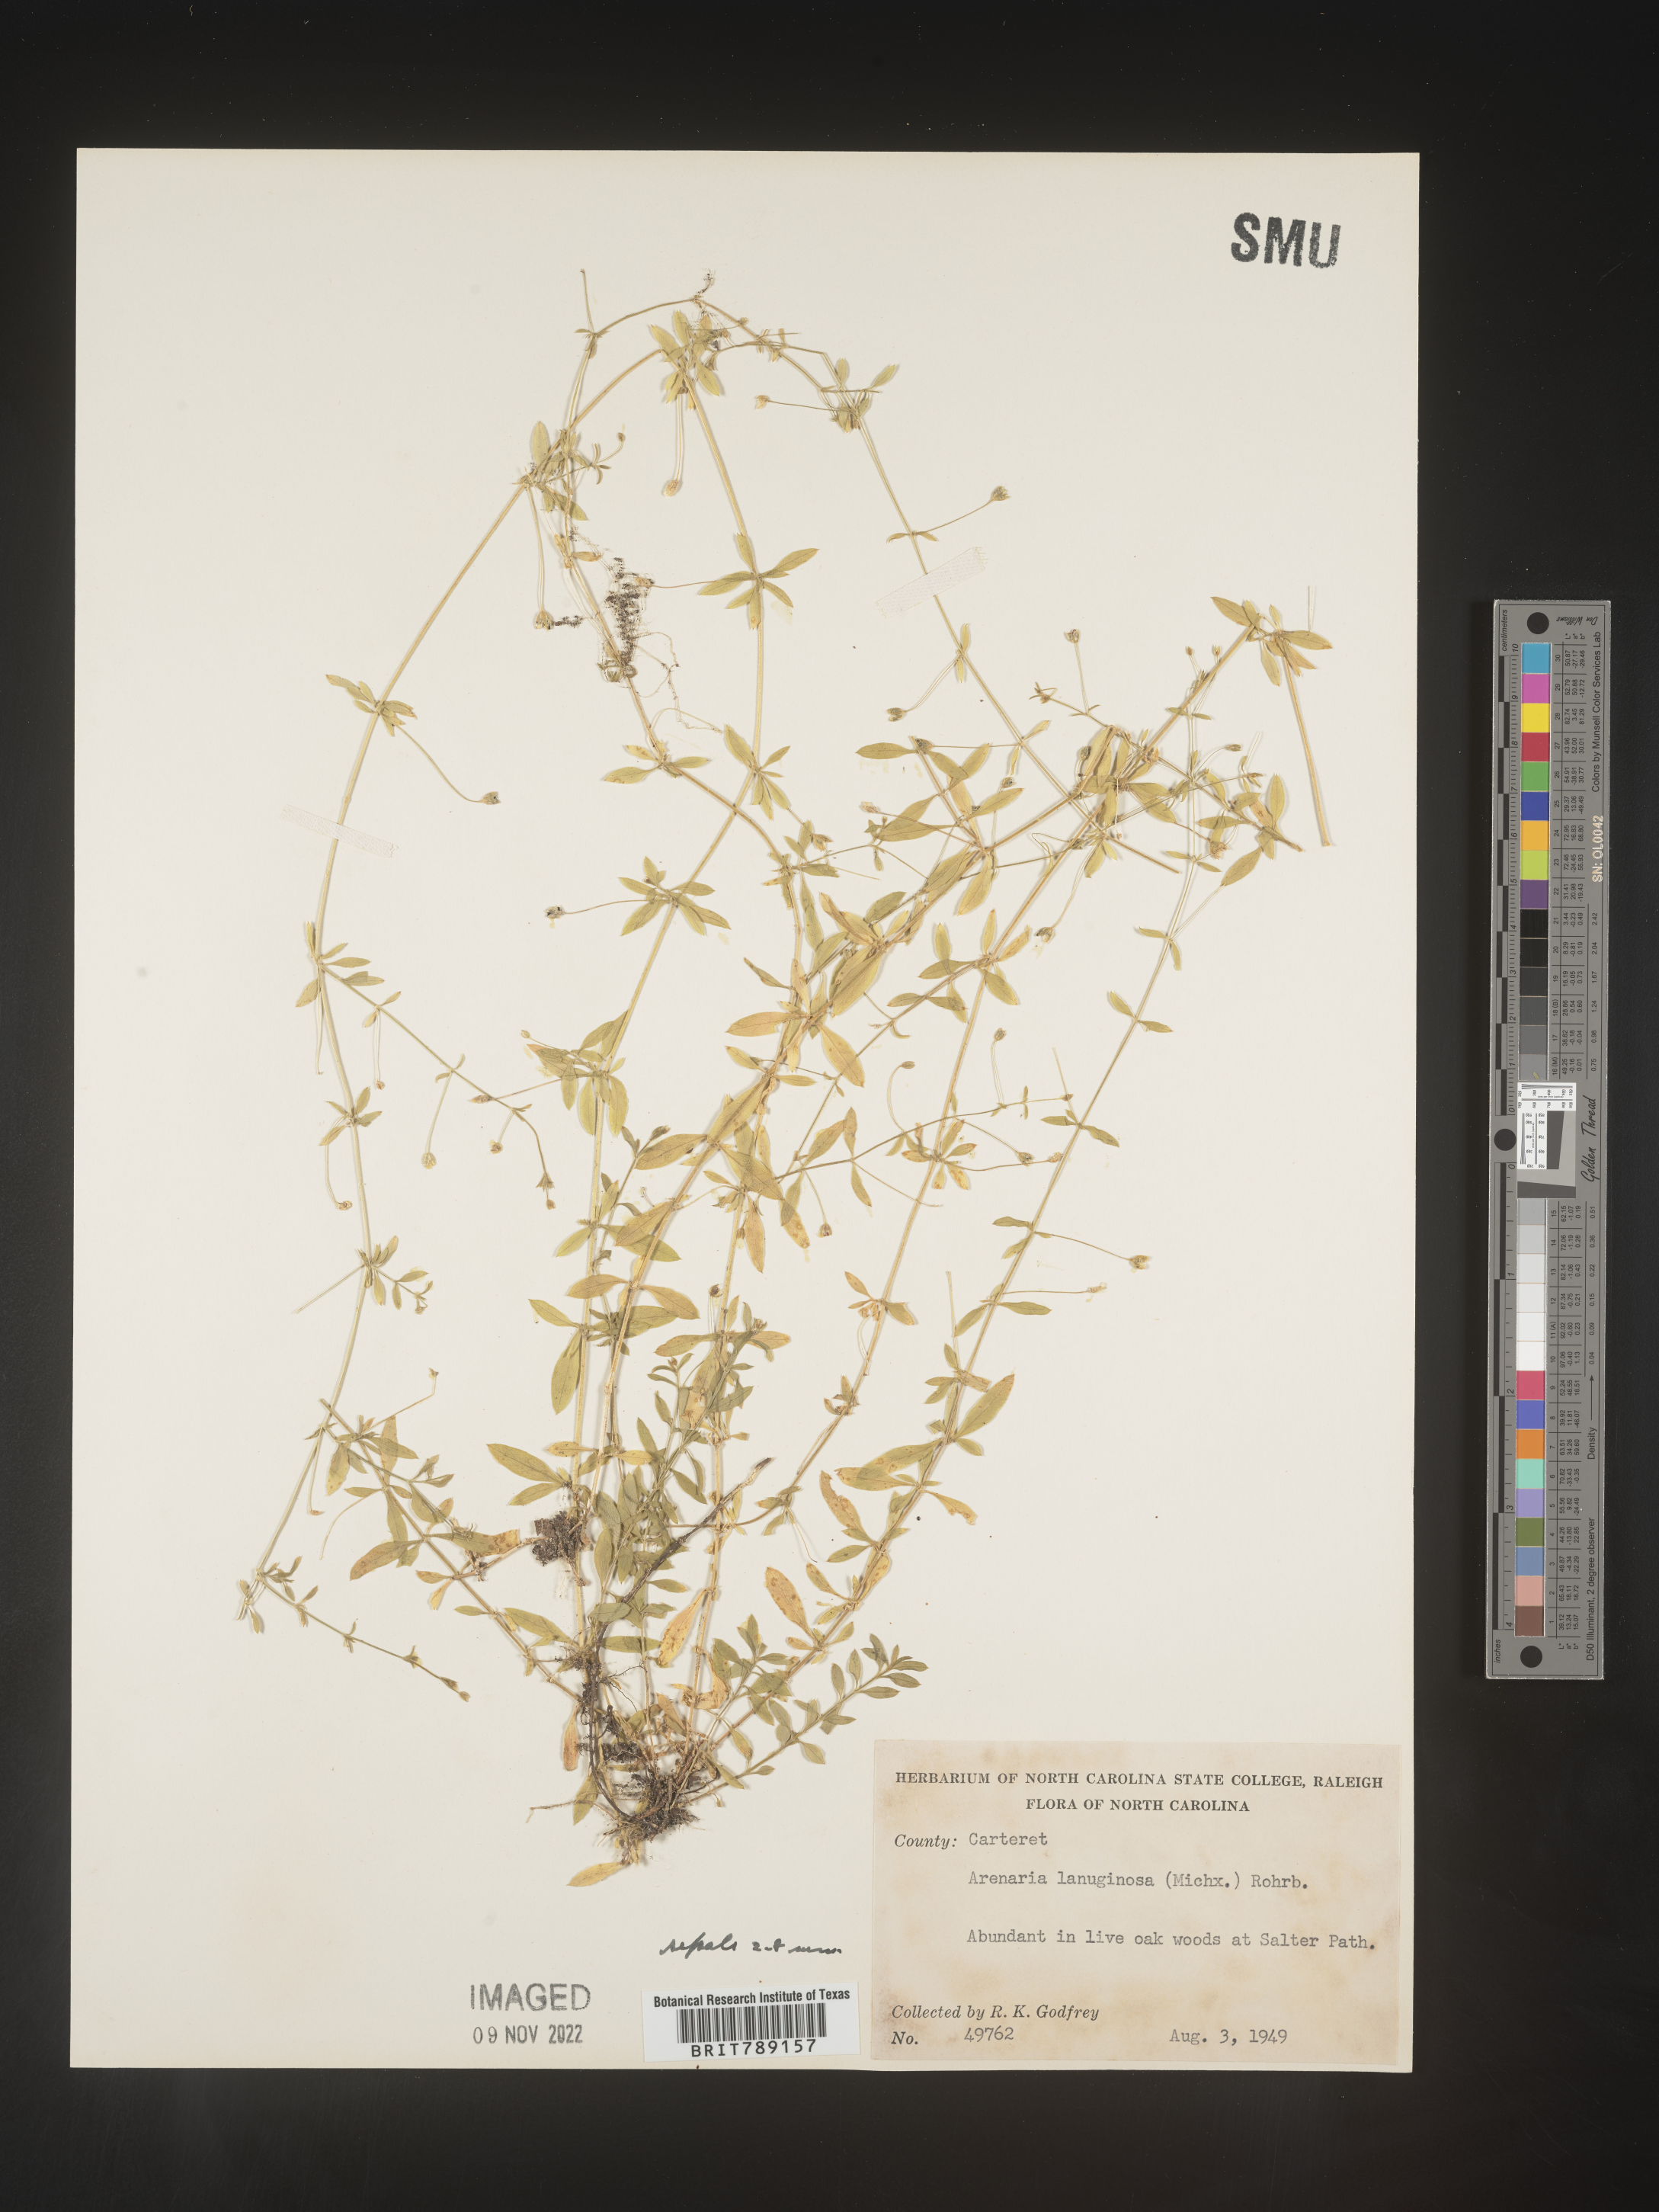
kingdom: Plantae
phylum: Tracheophyta
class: Magnoliopsida
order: Caryophyllales
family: Caryophyllaceae
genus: Arenaria
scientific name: Arenaria
